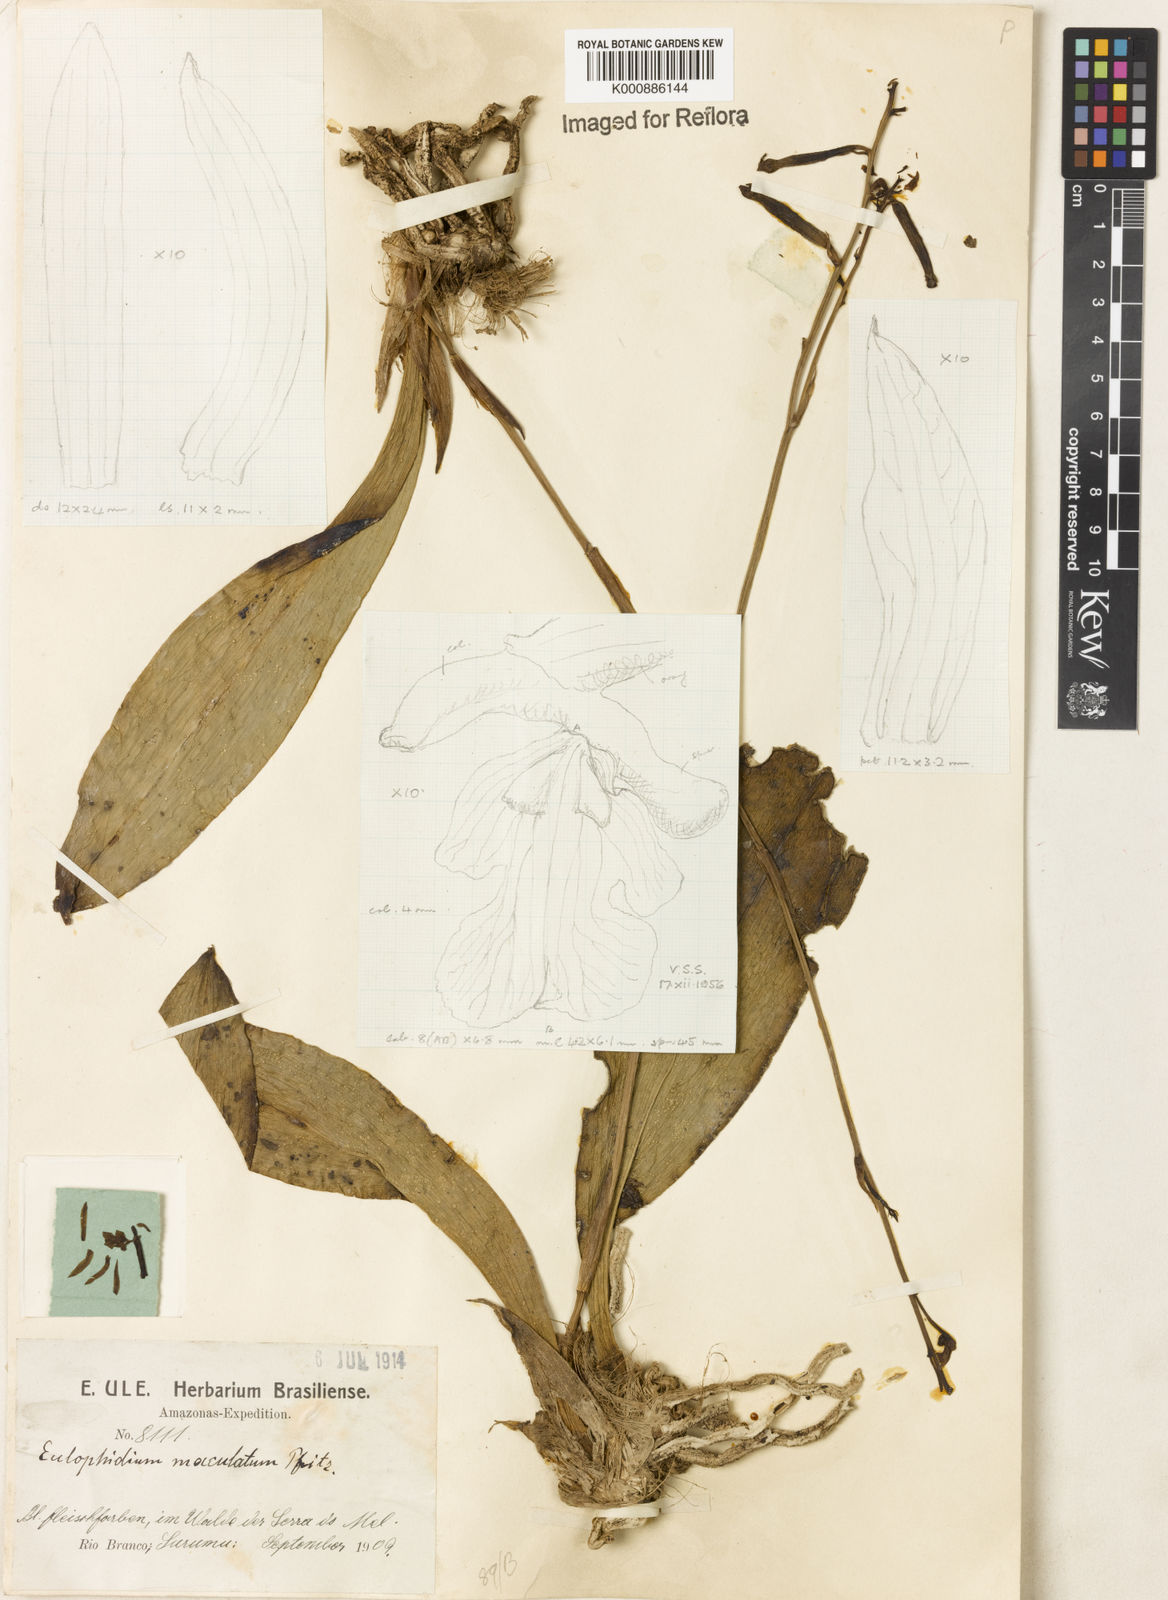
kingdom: Plantae
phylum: Tracheophyta
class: Liliopsida
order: Asparagales
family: Orchidaceae
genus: Eulophia
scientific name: Eulophia maculata
